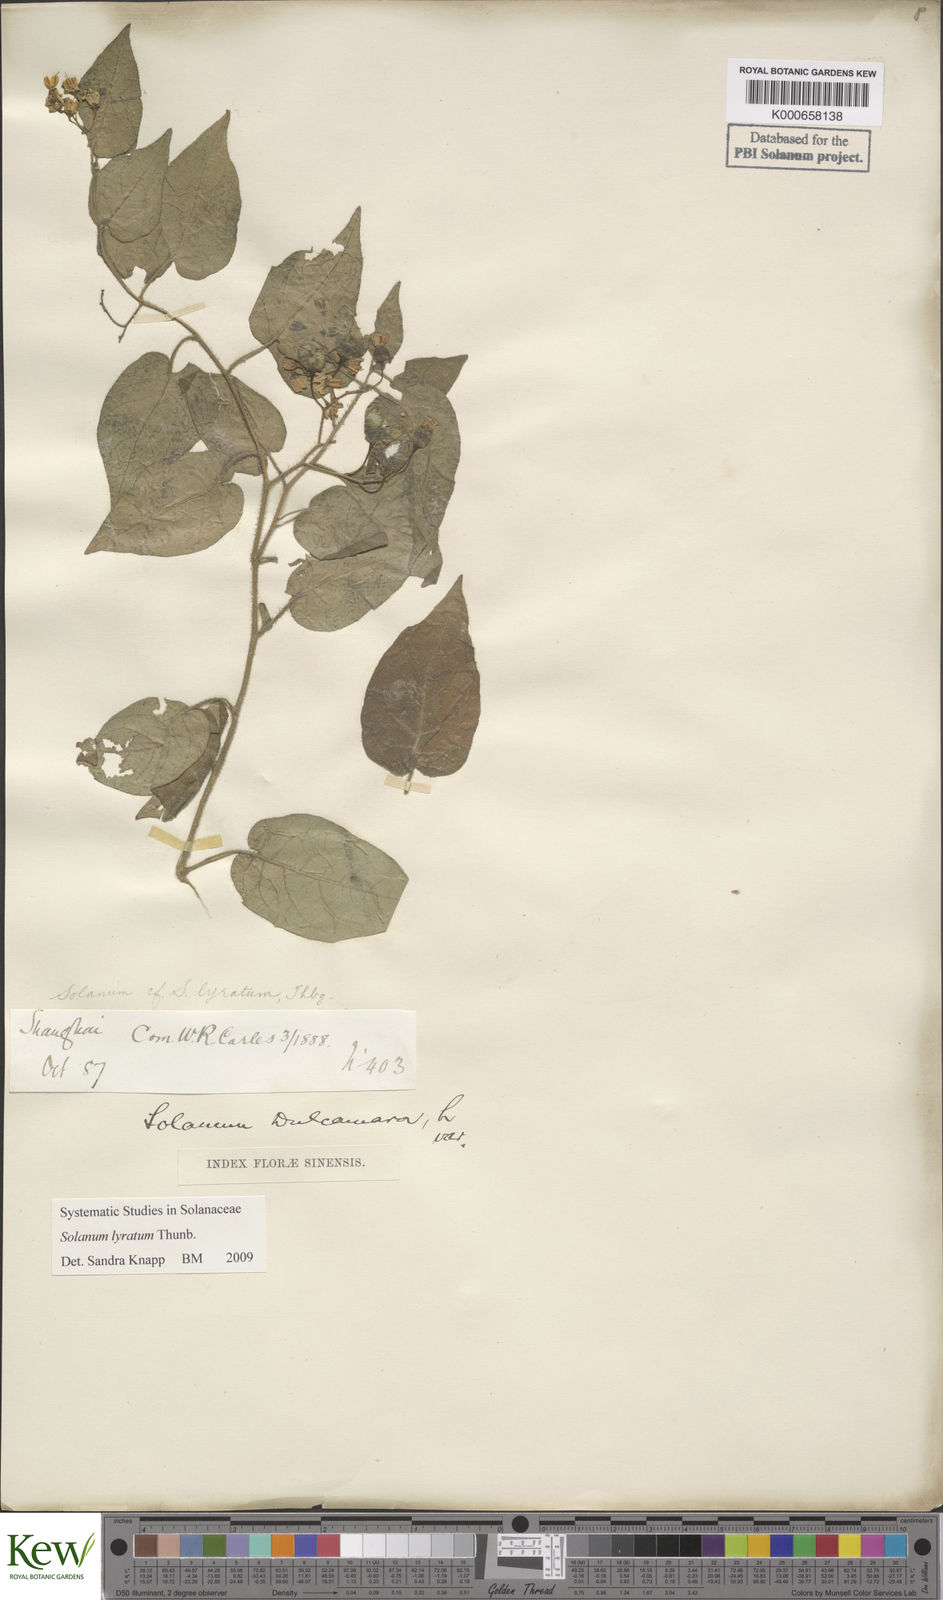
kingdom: Plantae
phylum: Tracheophyta
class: Magnoliopsida
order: Solanales
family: Solanaceae
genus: Solanum
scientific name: Solanum lyratum
